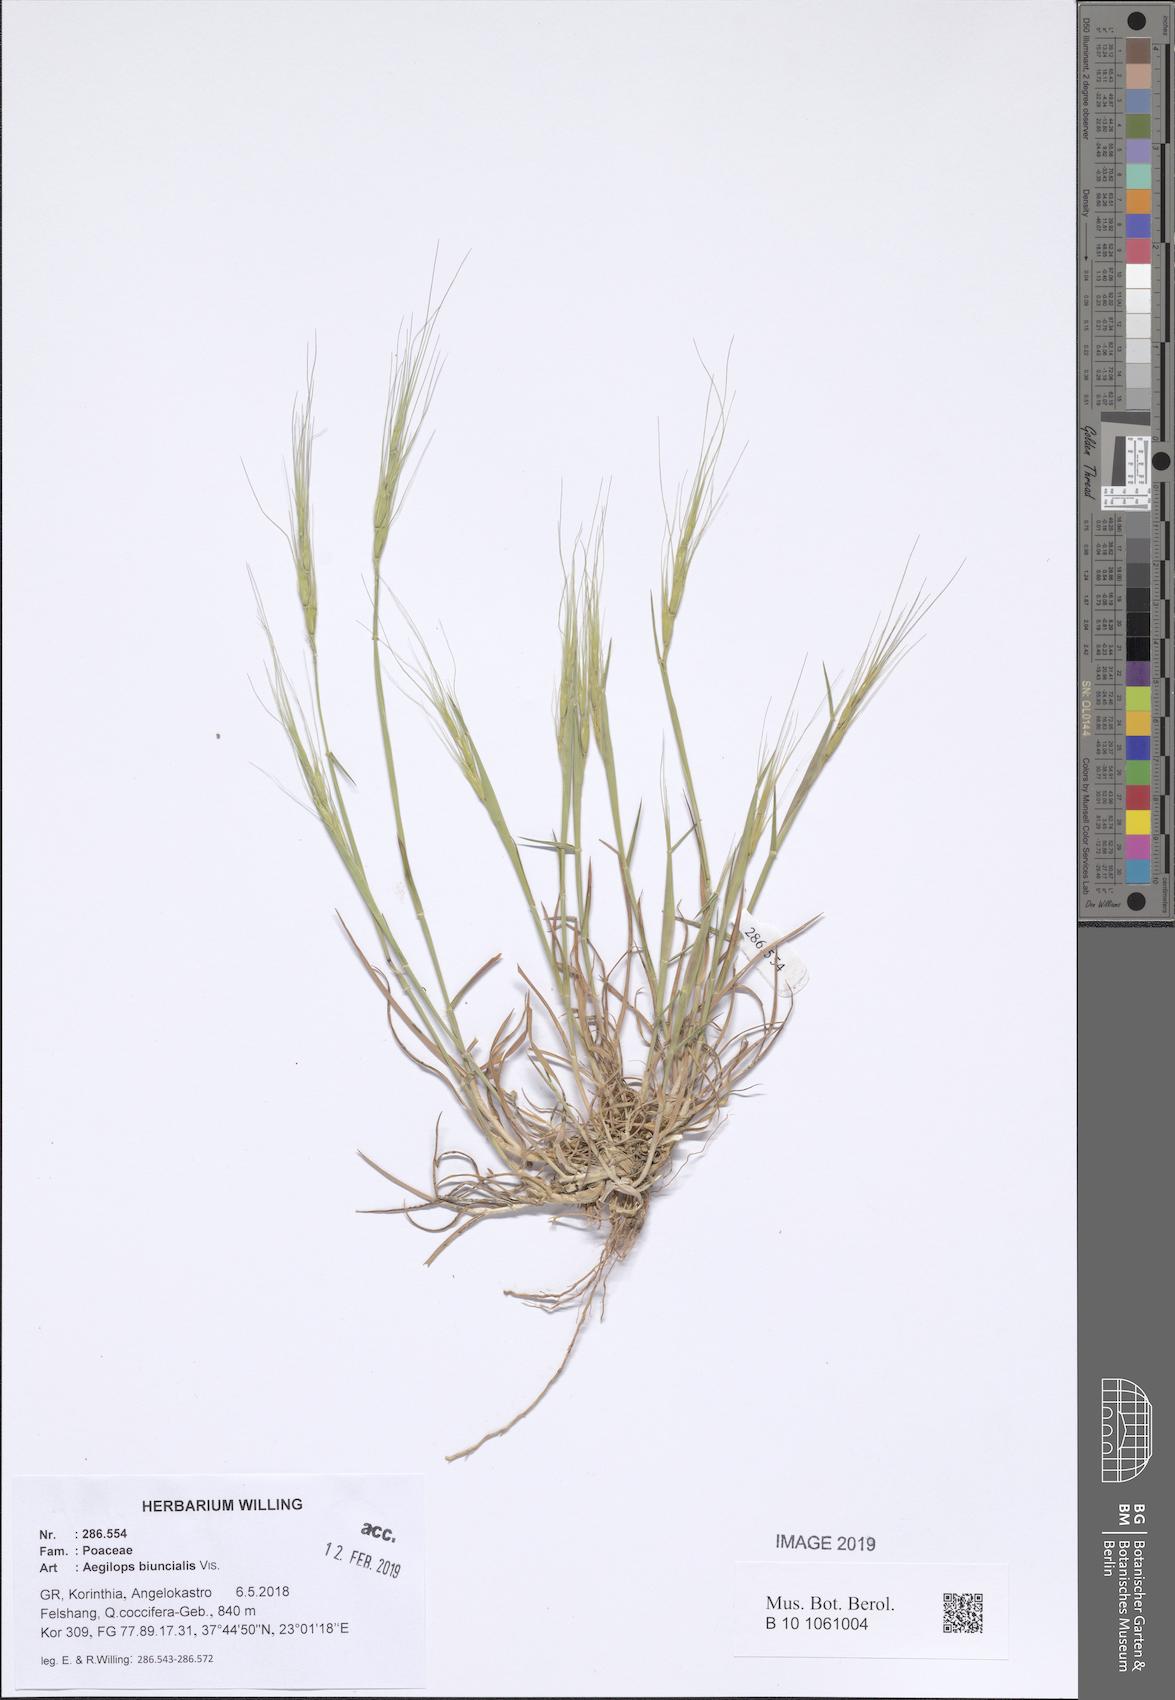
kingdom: Plantae
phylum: Tracheophyta
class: Liliopsida
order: Poales
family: Poaceae
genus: Aegilops
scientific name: Aegilops biuncialis
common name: Mediterranean aegilops
